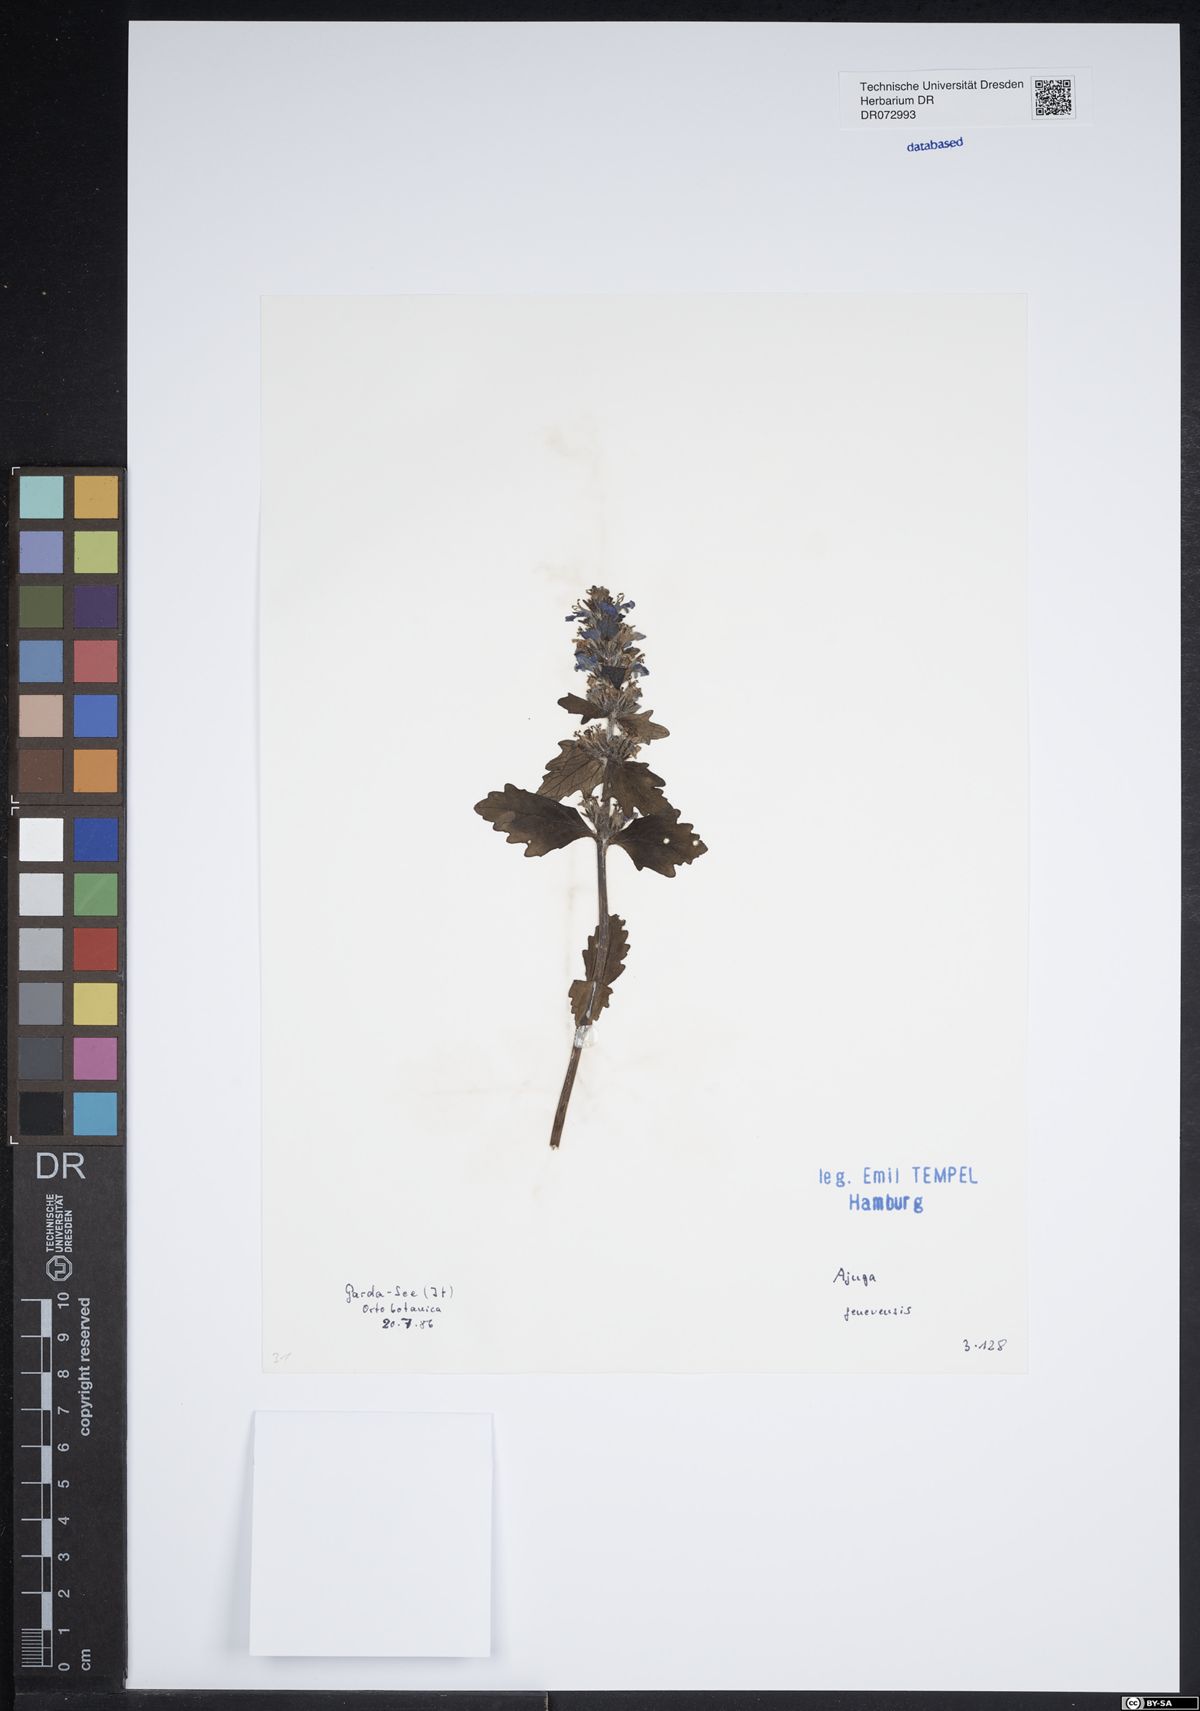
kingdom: Plantae
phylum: Tracheophyta
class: Magnoliopsida
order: Lamiales
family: Lamiaceae
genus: Ajuga
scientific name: Ajuga genevensis
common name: Blue bugle
